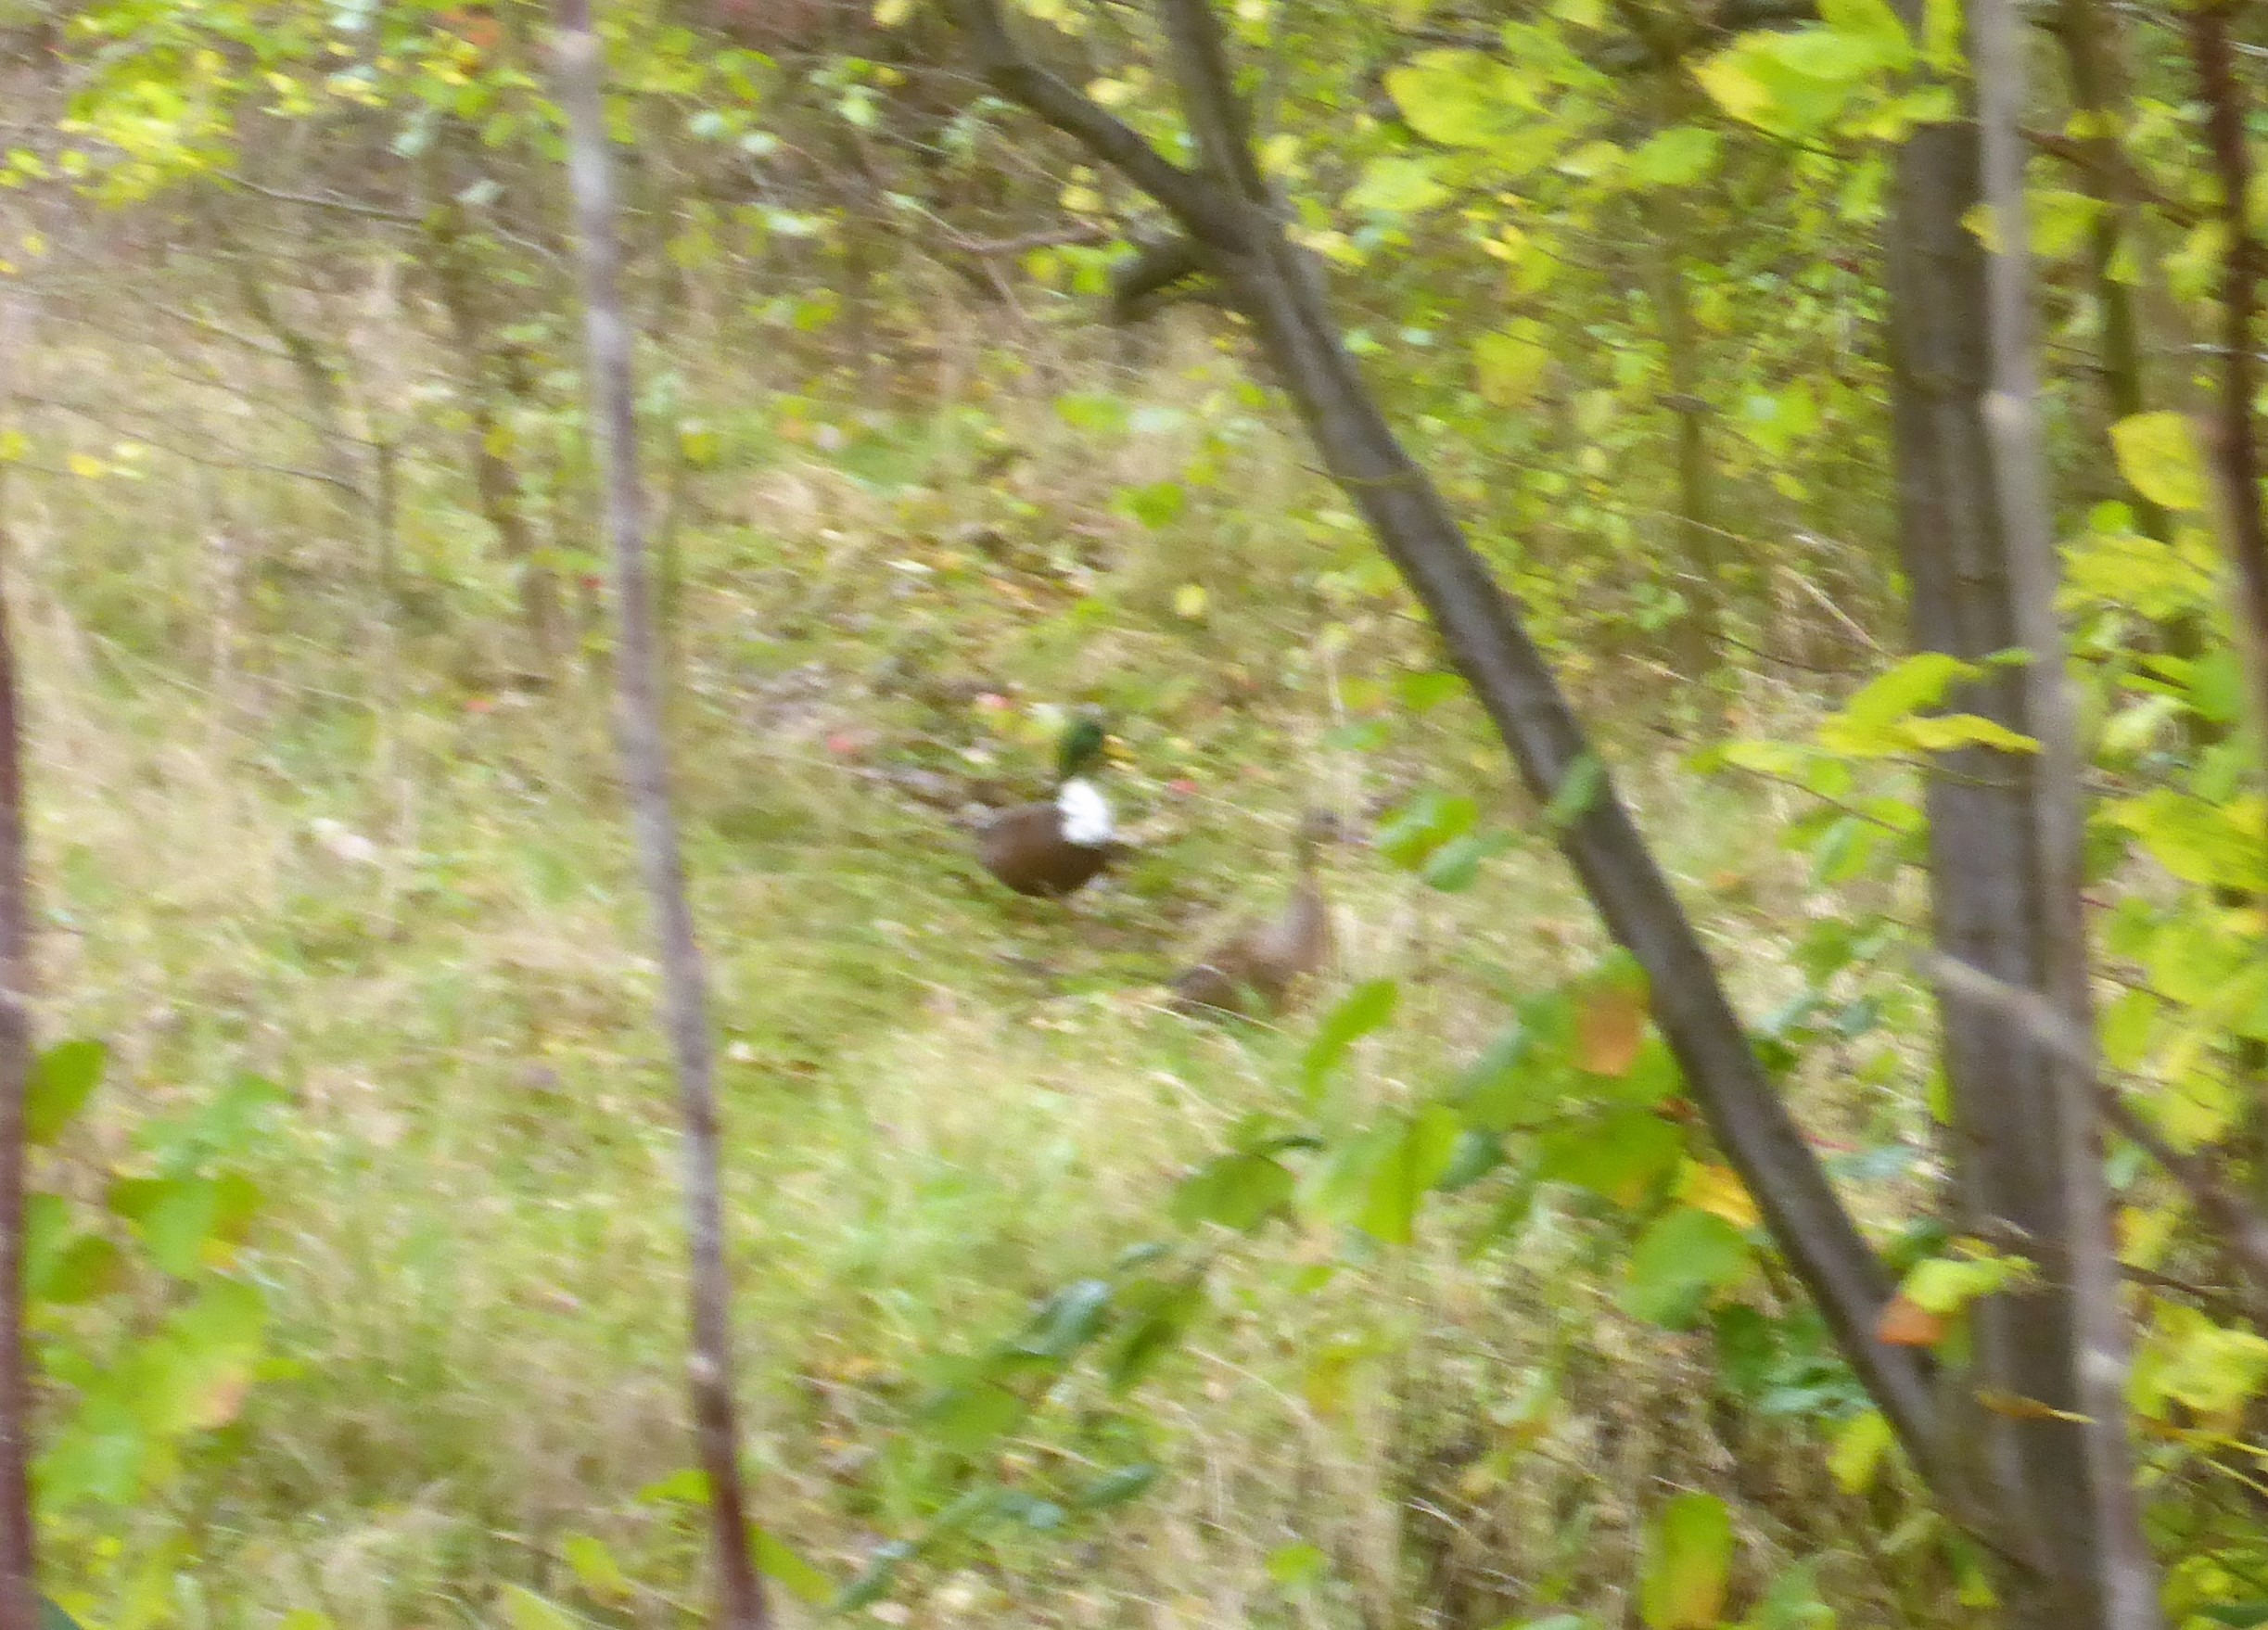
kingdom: Animalia
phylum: Chordata
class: Aves
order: Anseriformes
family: Anatidae
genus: Anas
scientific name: Anas platyrhynchos
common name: Gråand
